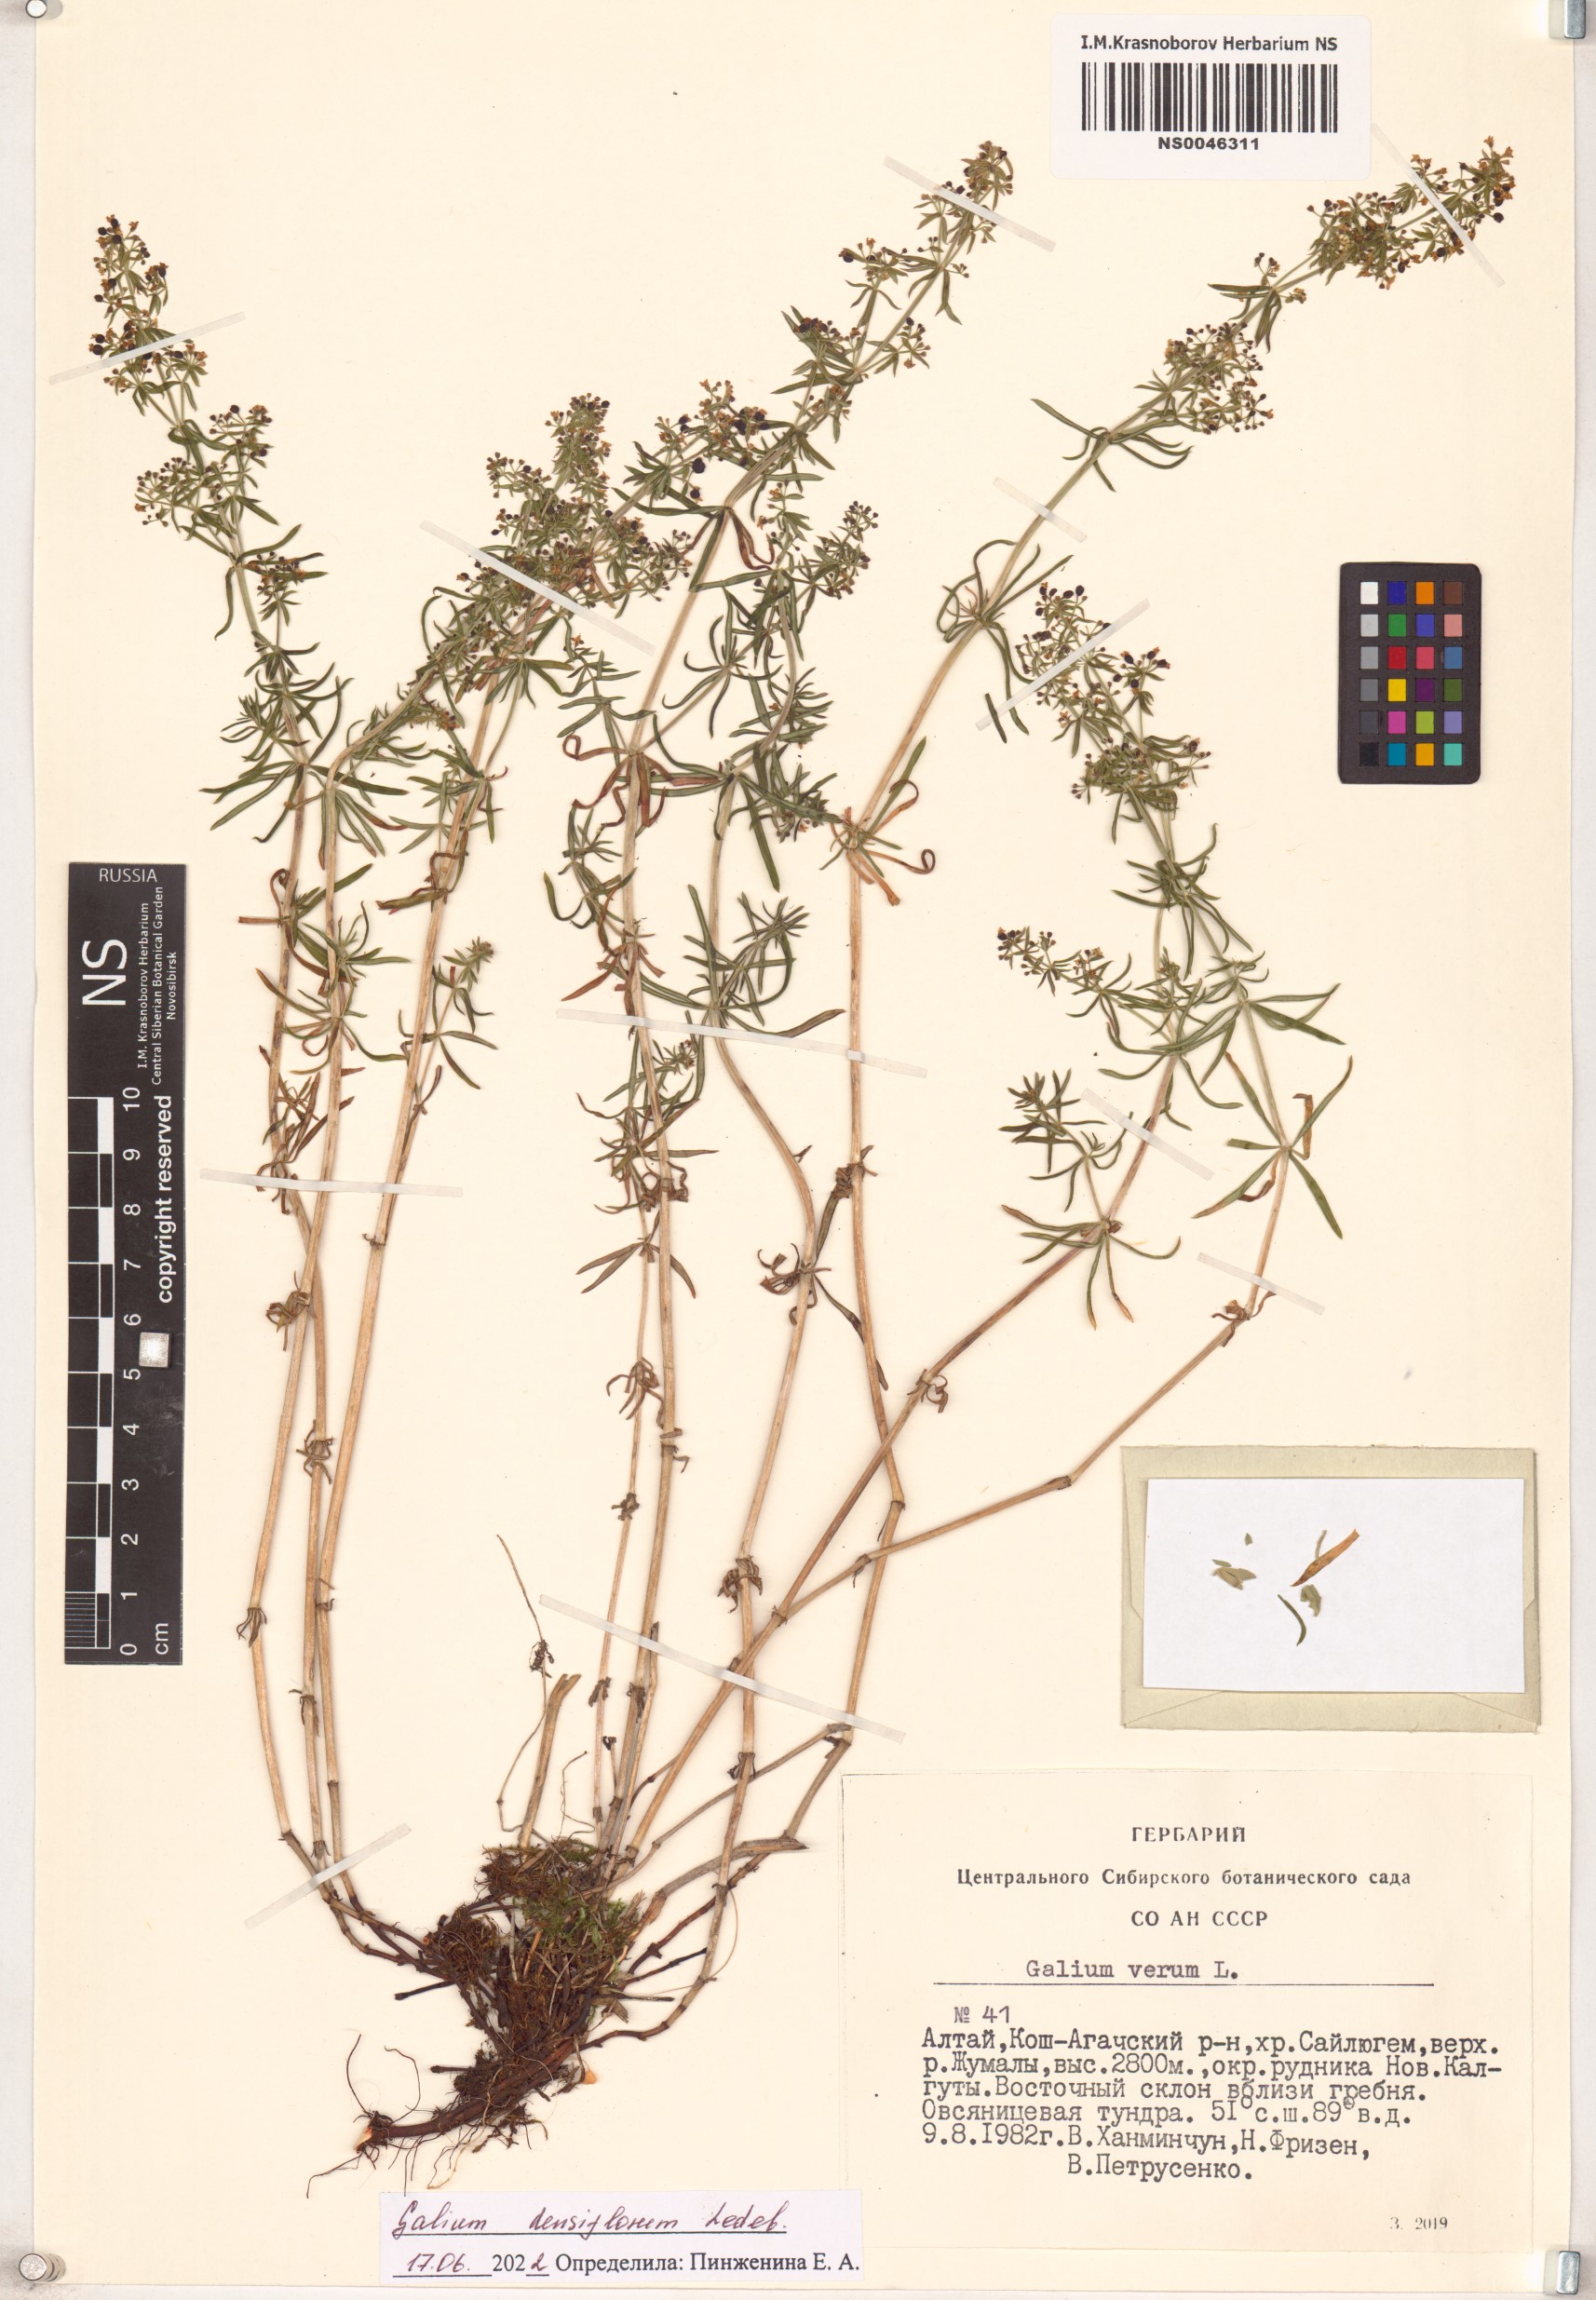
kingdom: Plantae
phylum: Tracheophyta
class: Magnoliopsida
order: Gentianales
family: Rubiaceae
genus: Galium
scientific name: Galium densiflorum
